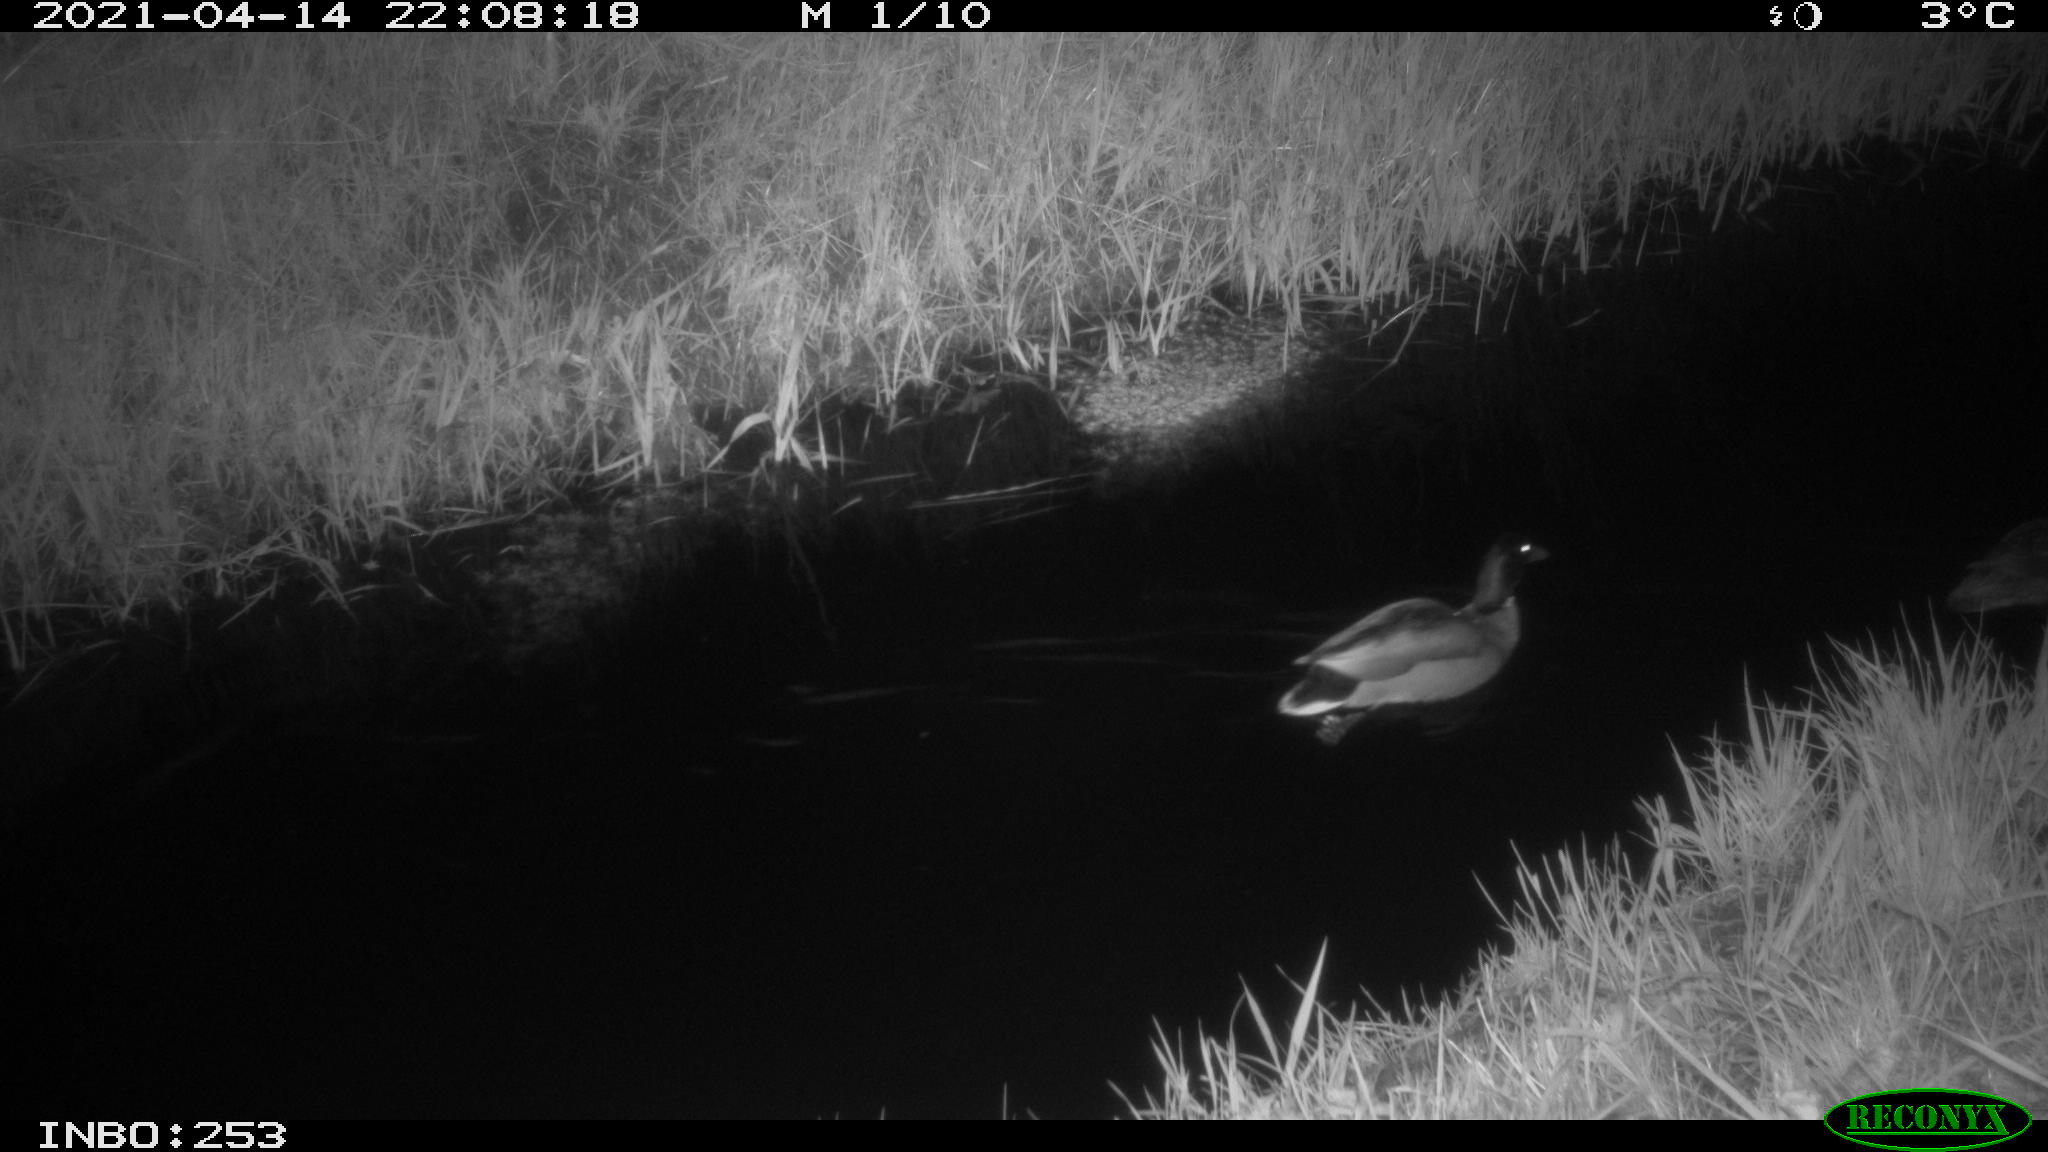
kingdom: Animalia
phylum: Chordata
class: Aves
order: Anseriformes
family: Anatidae
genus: Anas
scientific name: Anas platyrhynchos
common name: Mallard
